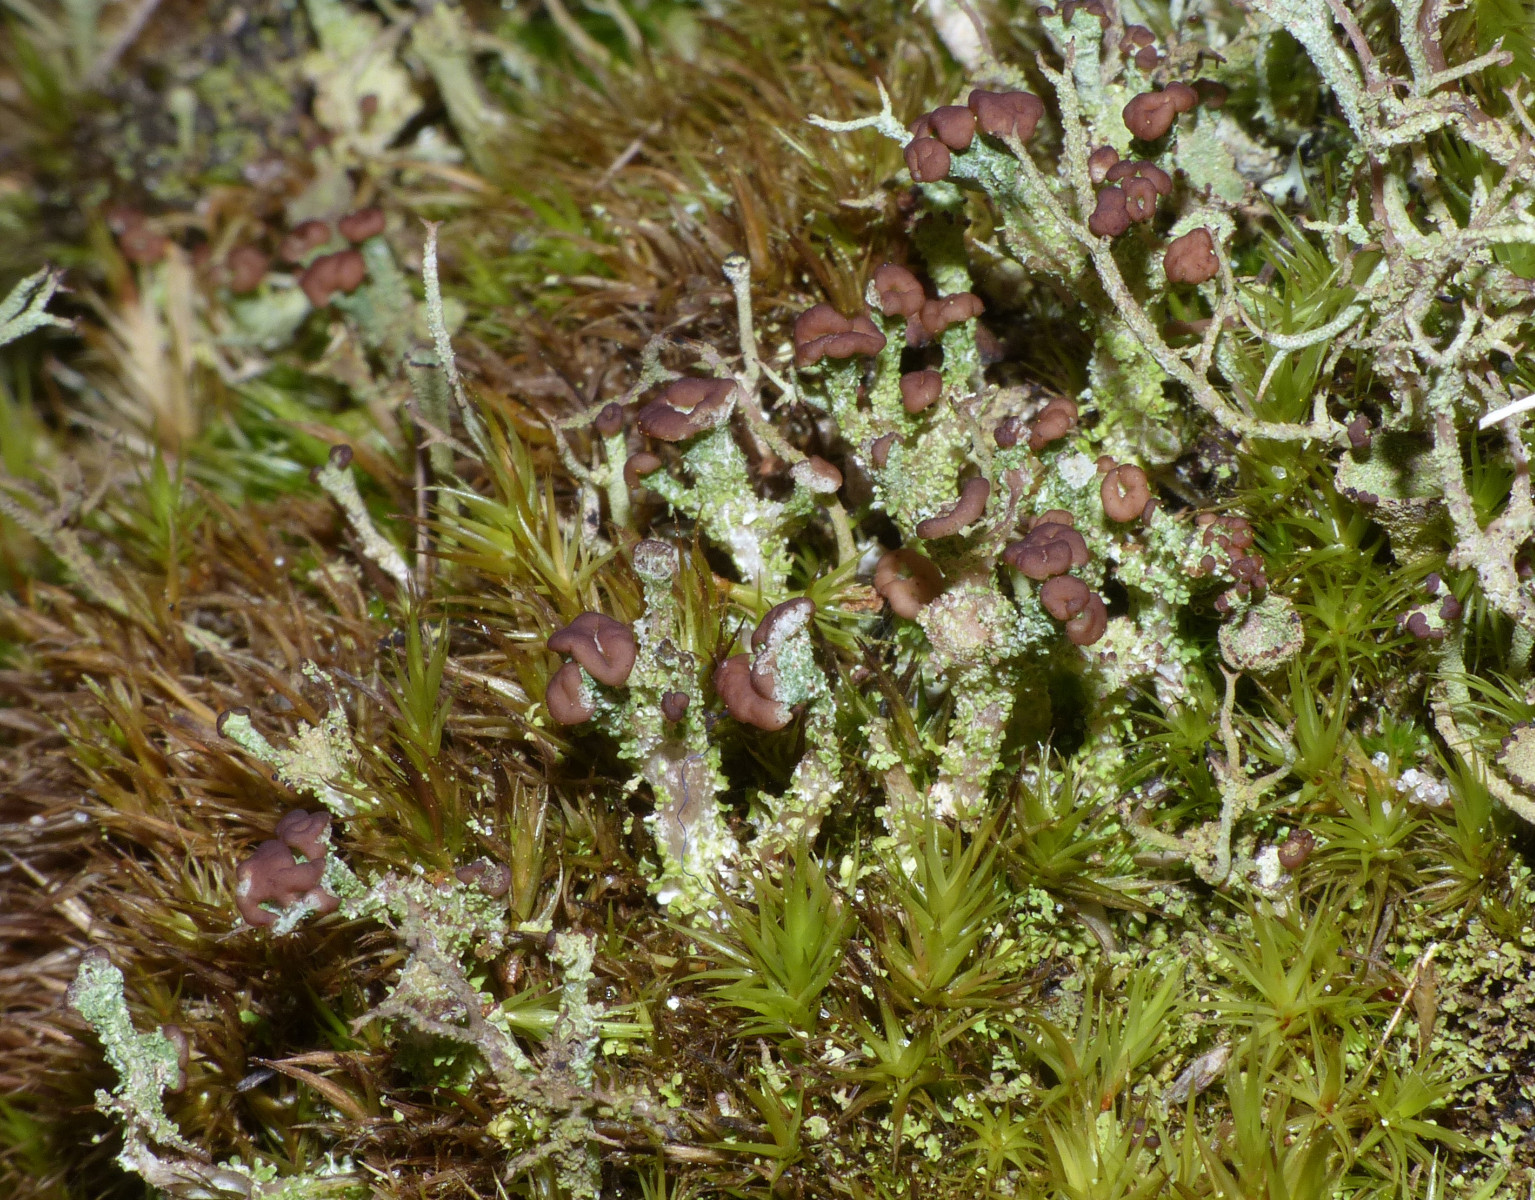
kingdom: Fungi
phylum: Ascomycota
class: Lecanoromycetes
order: Lecanorales
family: Cladoniaceae
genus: Cladonia
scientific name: Cladonia ramulosa
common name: kliddet bægerlav
